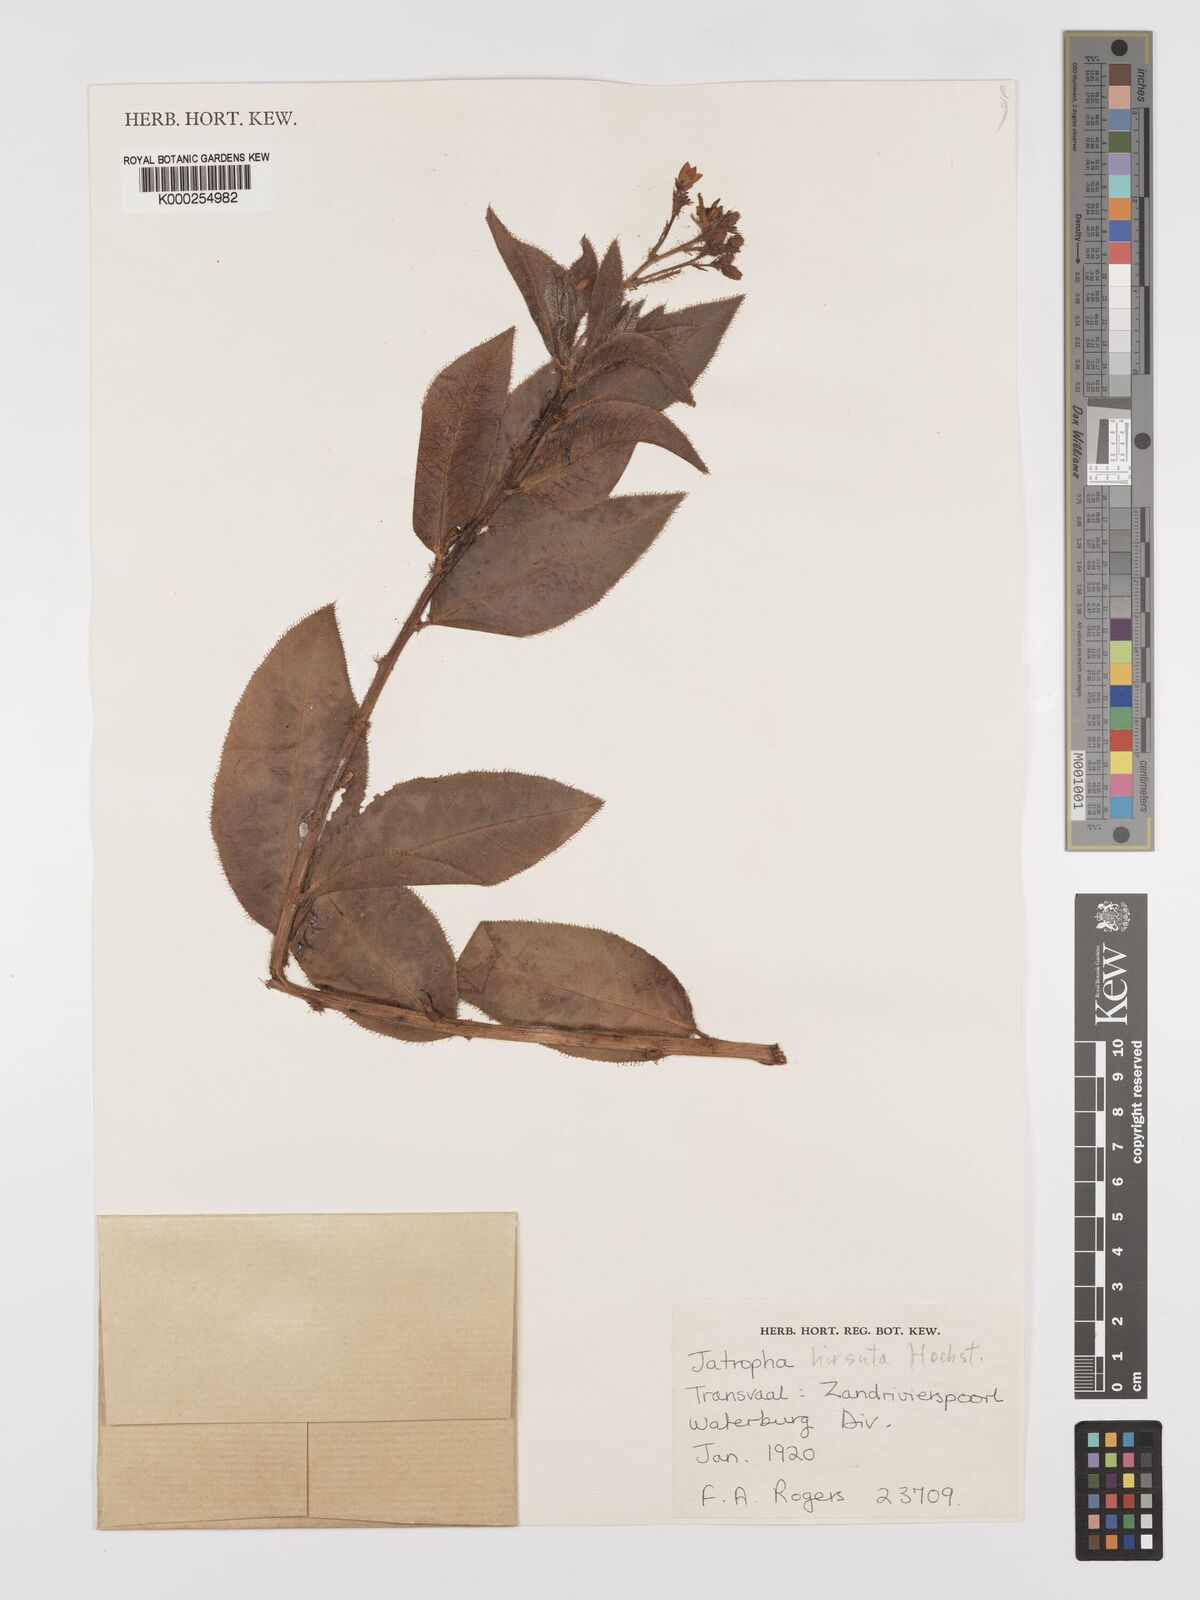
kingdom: Plantae
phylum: Tracheophyta
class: Magnoliopsida
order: Malpighiales
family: Euphorbiaceae
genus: Jatropha
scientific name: Jatropha hirsuta
